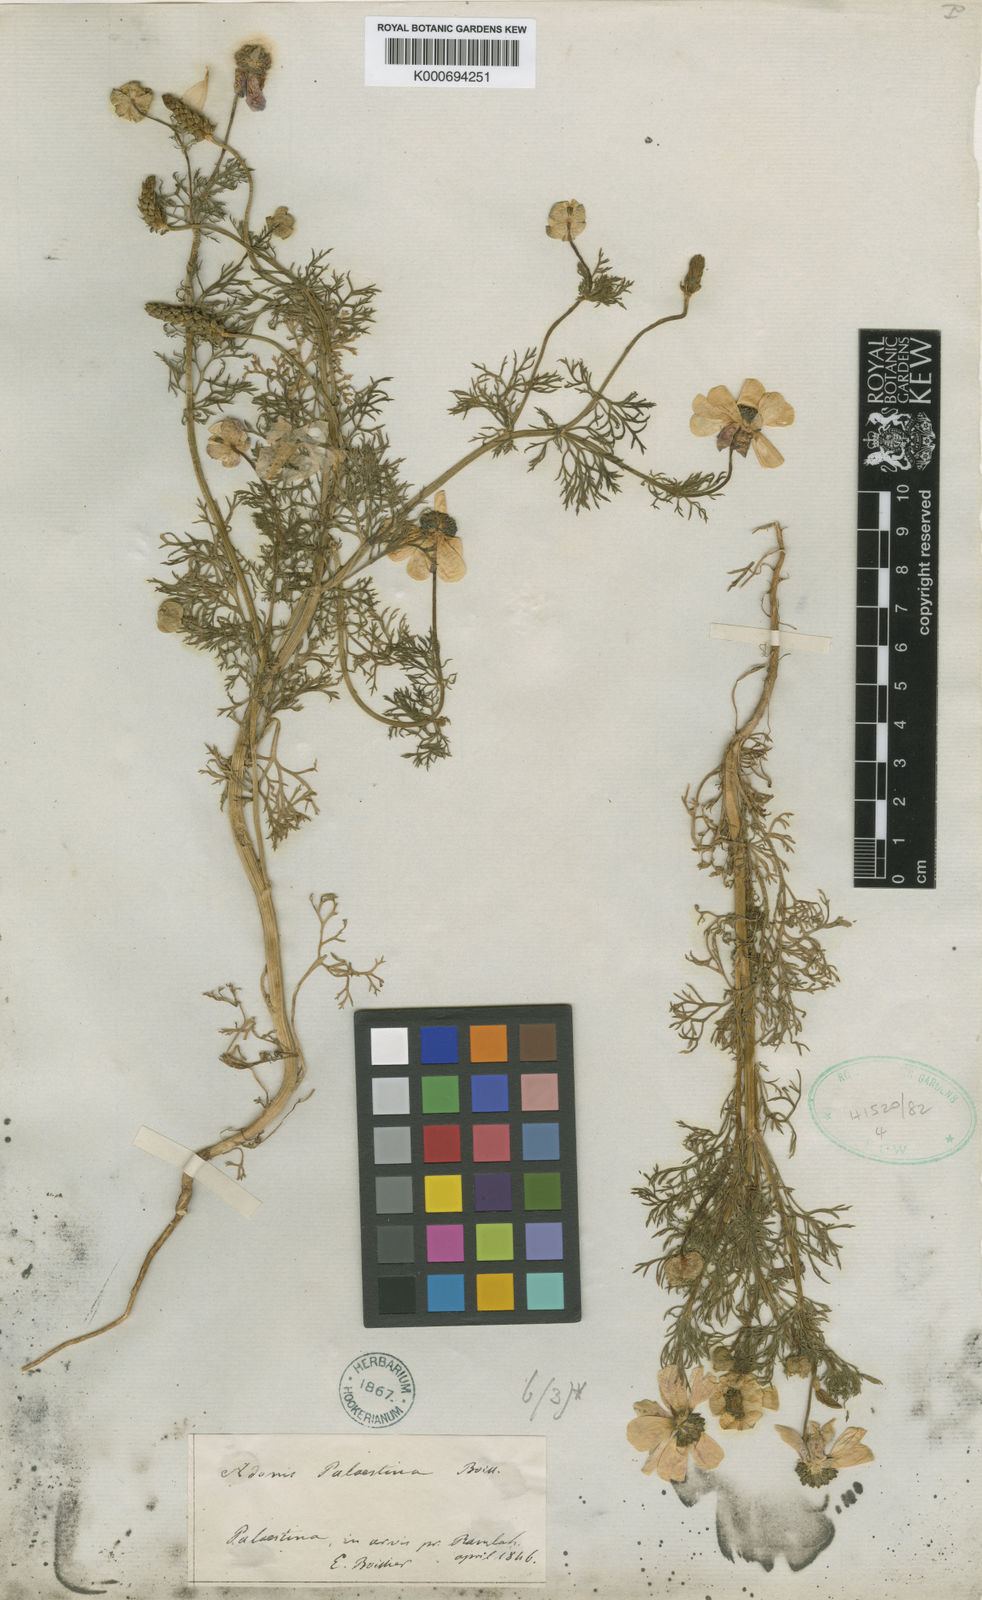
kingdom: Plantae
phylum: Tracheophyta
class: Magnoliopsida
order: Ranunculales
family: Ranunculaceae
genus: Adonis
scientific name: Adonis palaestina
